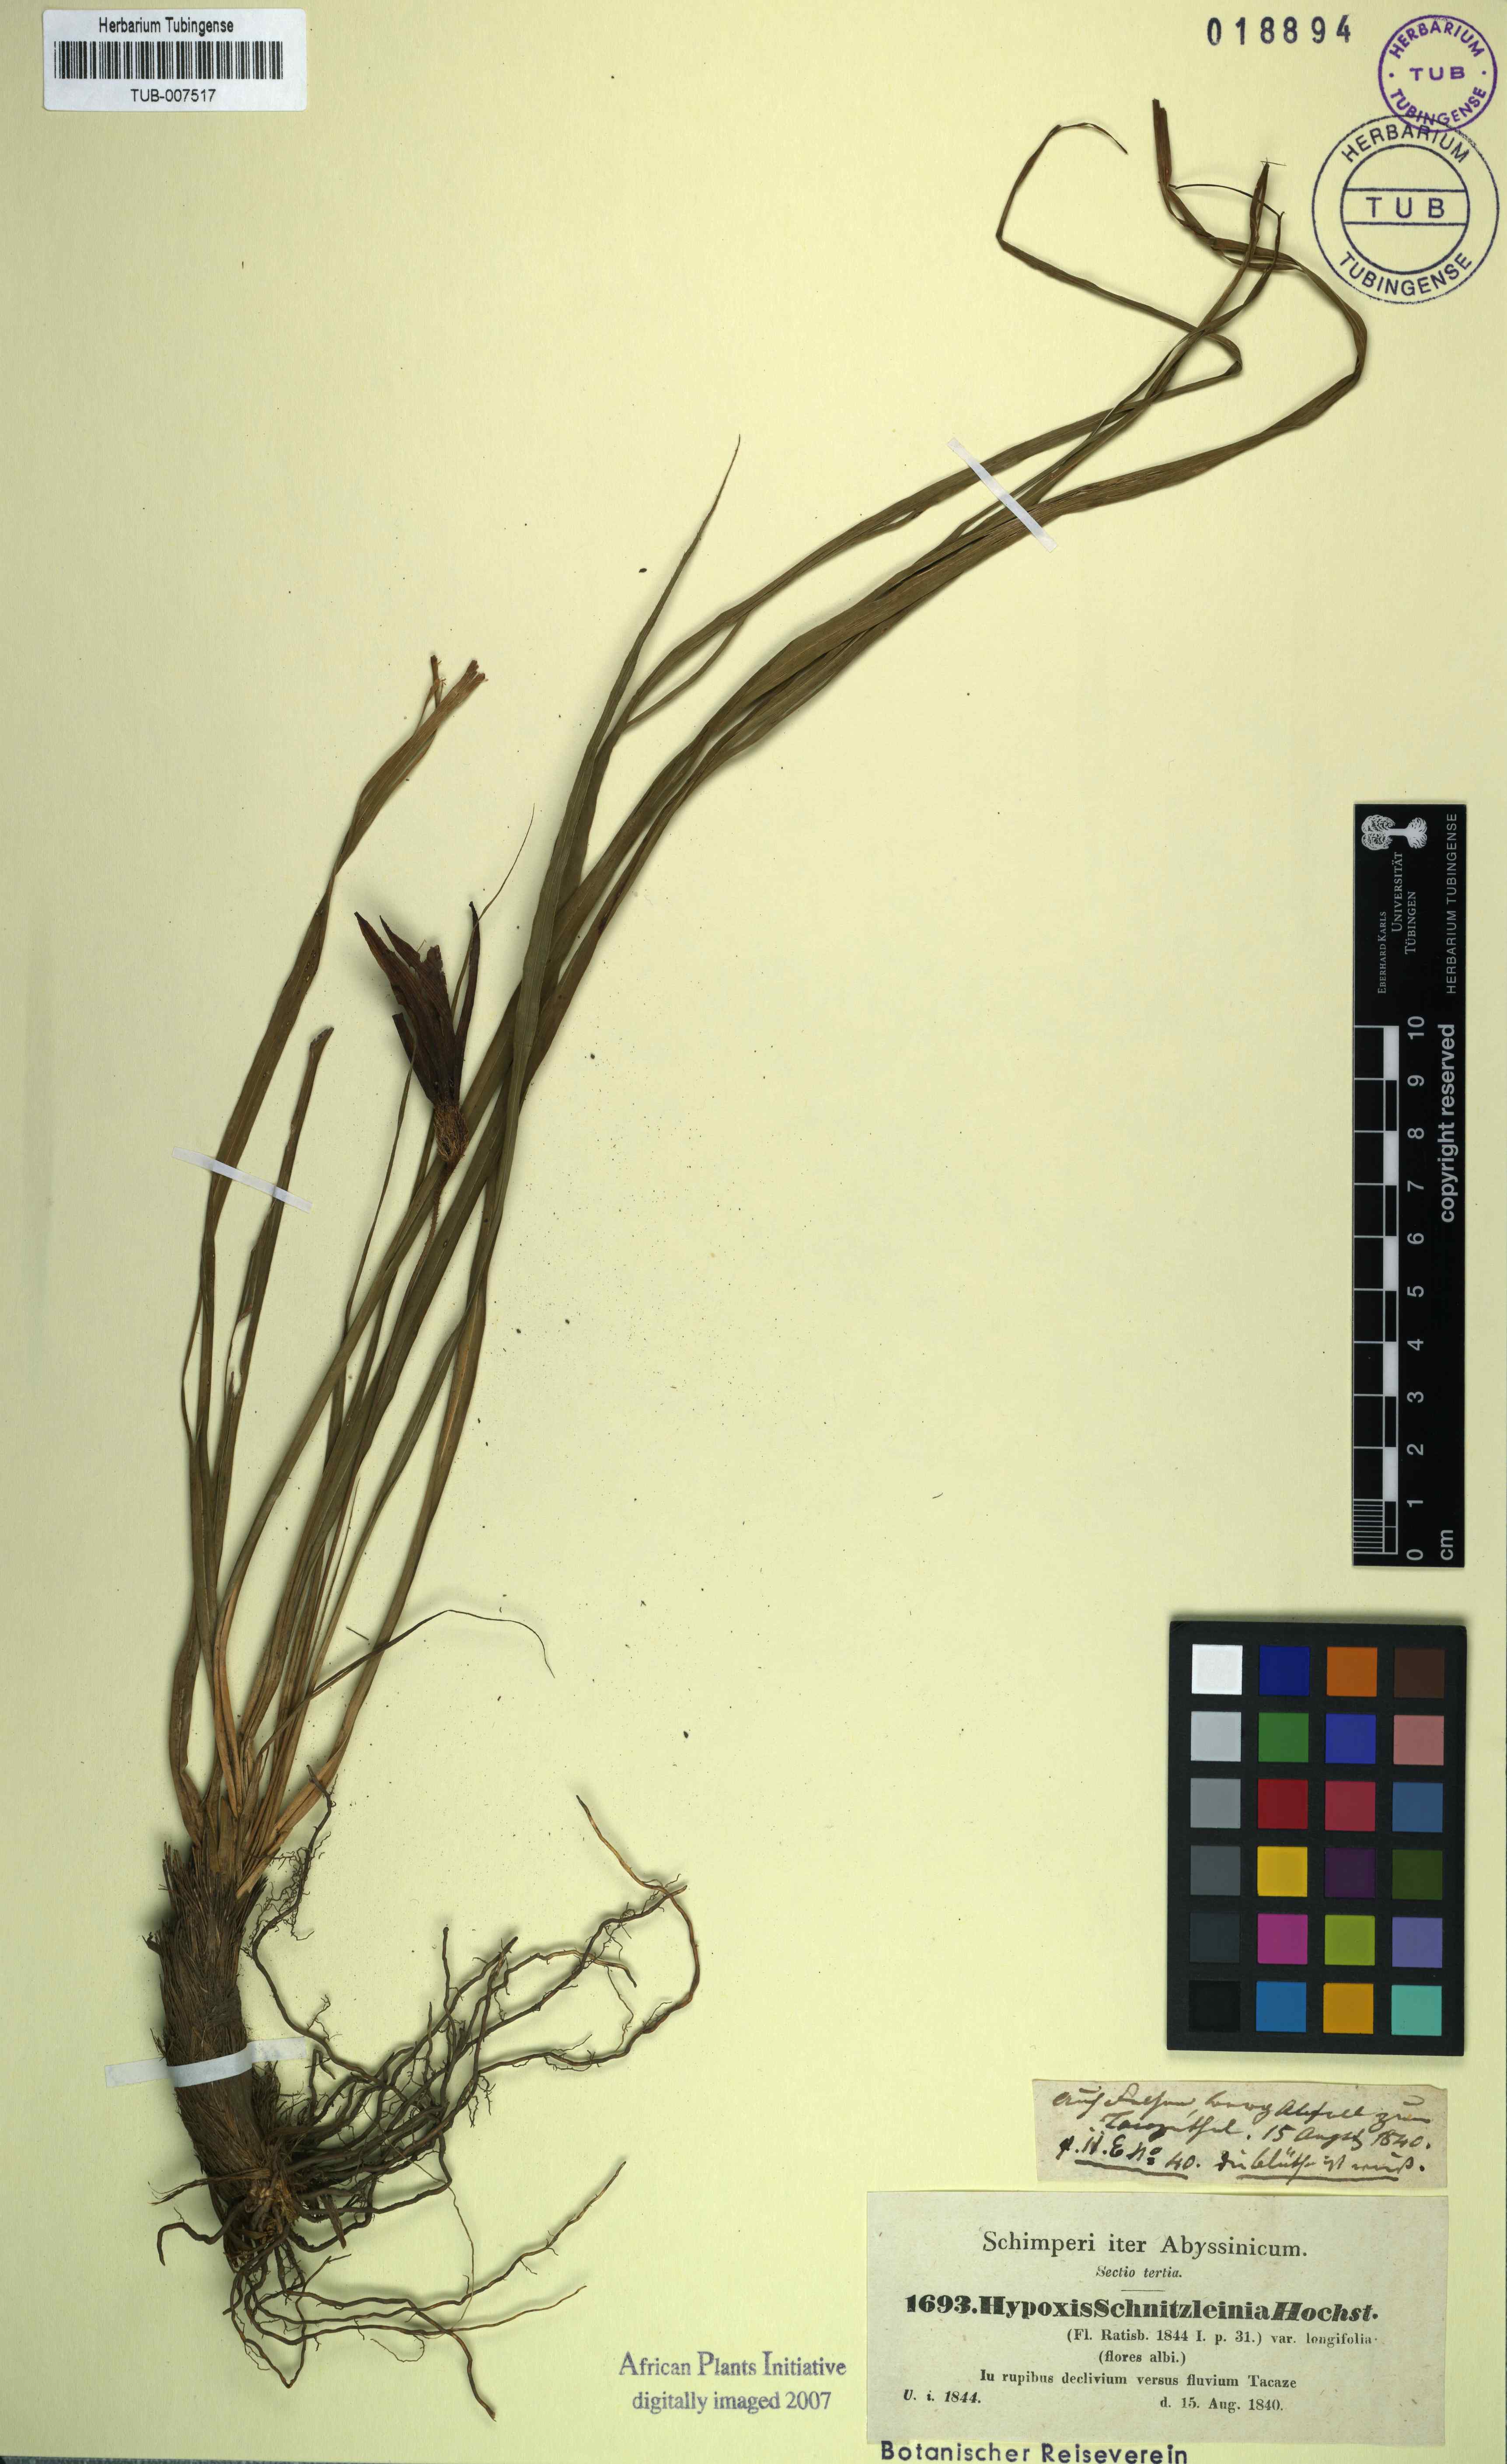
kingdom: Plantae
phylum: Tracheophyta
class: Liliopsida
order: Pandanales
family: Velloziaceae
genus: Xerophyta
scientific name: Xerophyta schnizleinia
